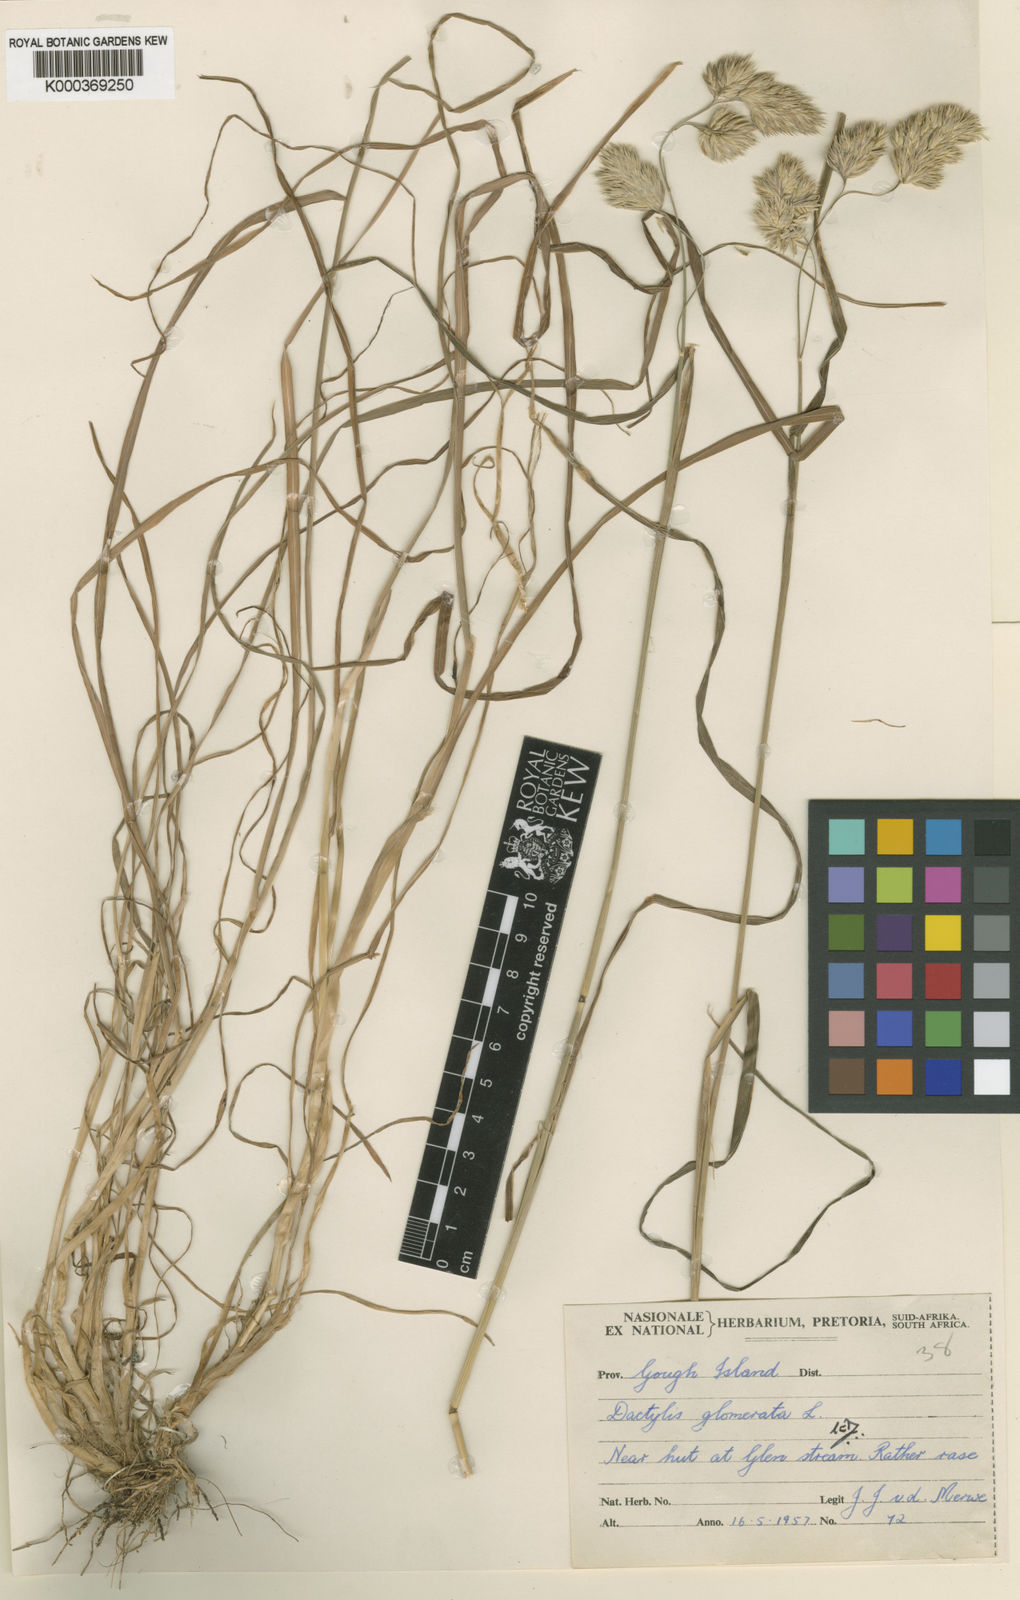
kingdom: Plantae
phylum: Tracheophyta
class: Liliopsida
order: Poales
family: Poaceae
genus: Dactylis
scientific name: Dactylis glomerata
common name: Orchardgrass
